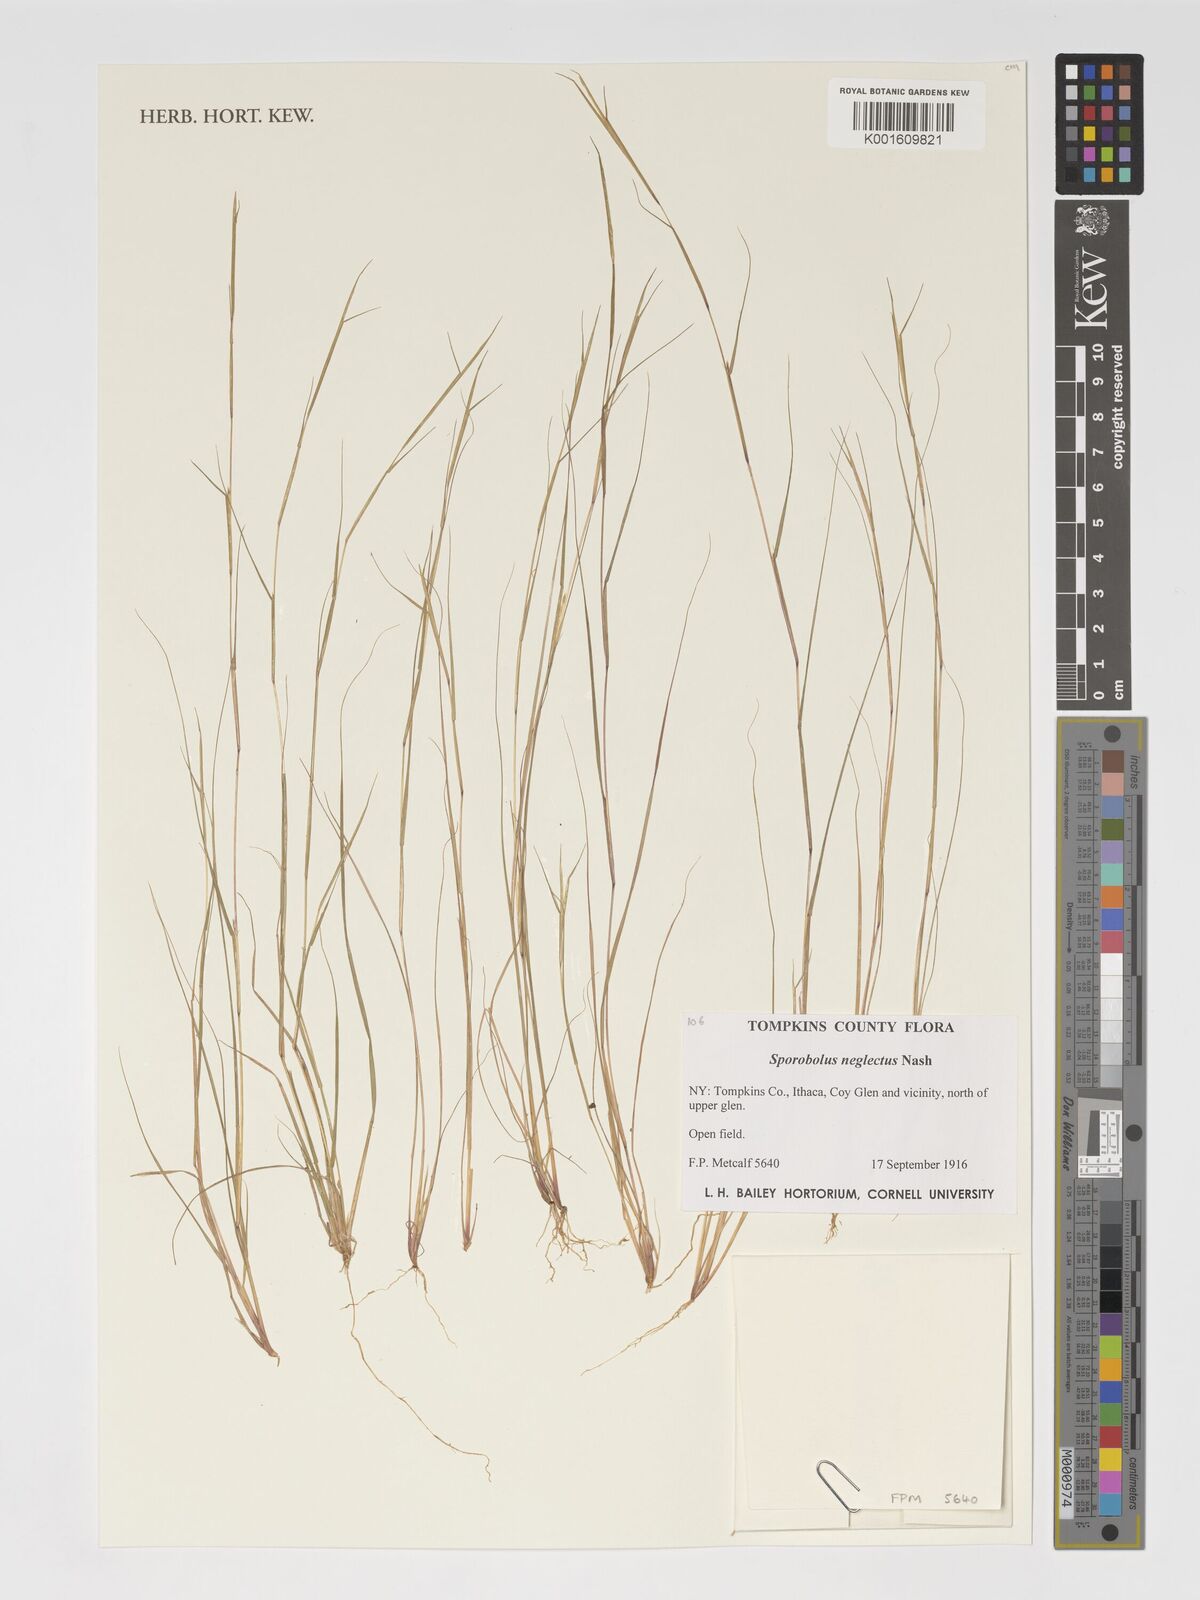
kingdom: Plantae
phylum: Tracheophyta
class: Liliopsida
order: Poales
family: Poaceae
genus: Sporobolus
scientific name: Sporobolus neglectus
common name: Annual dropseed
